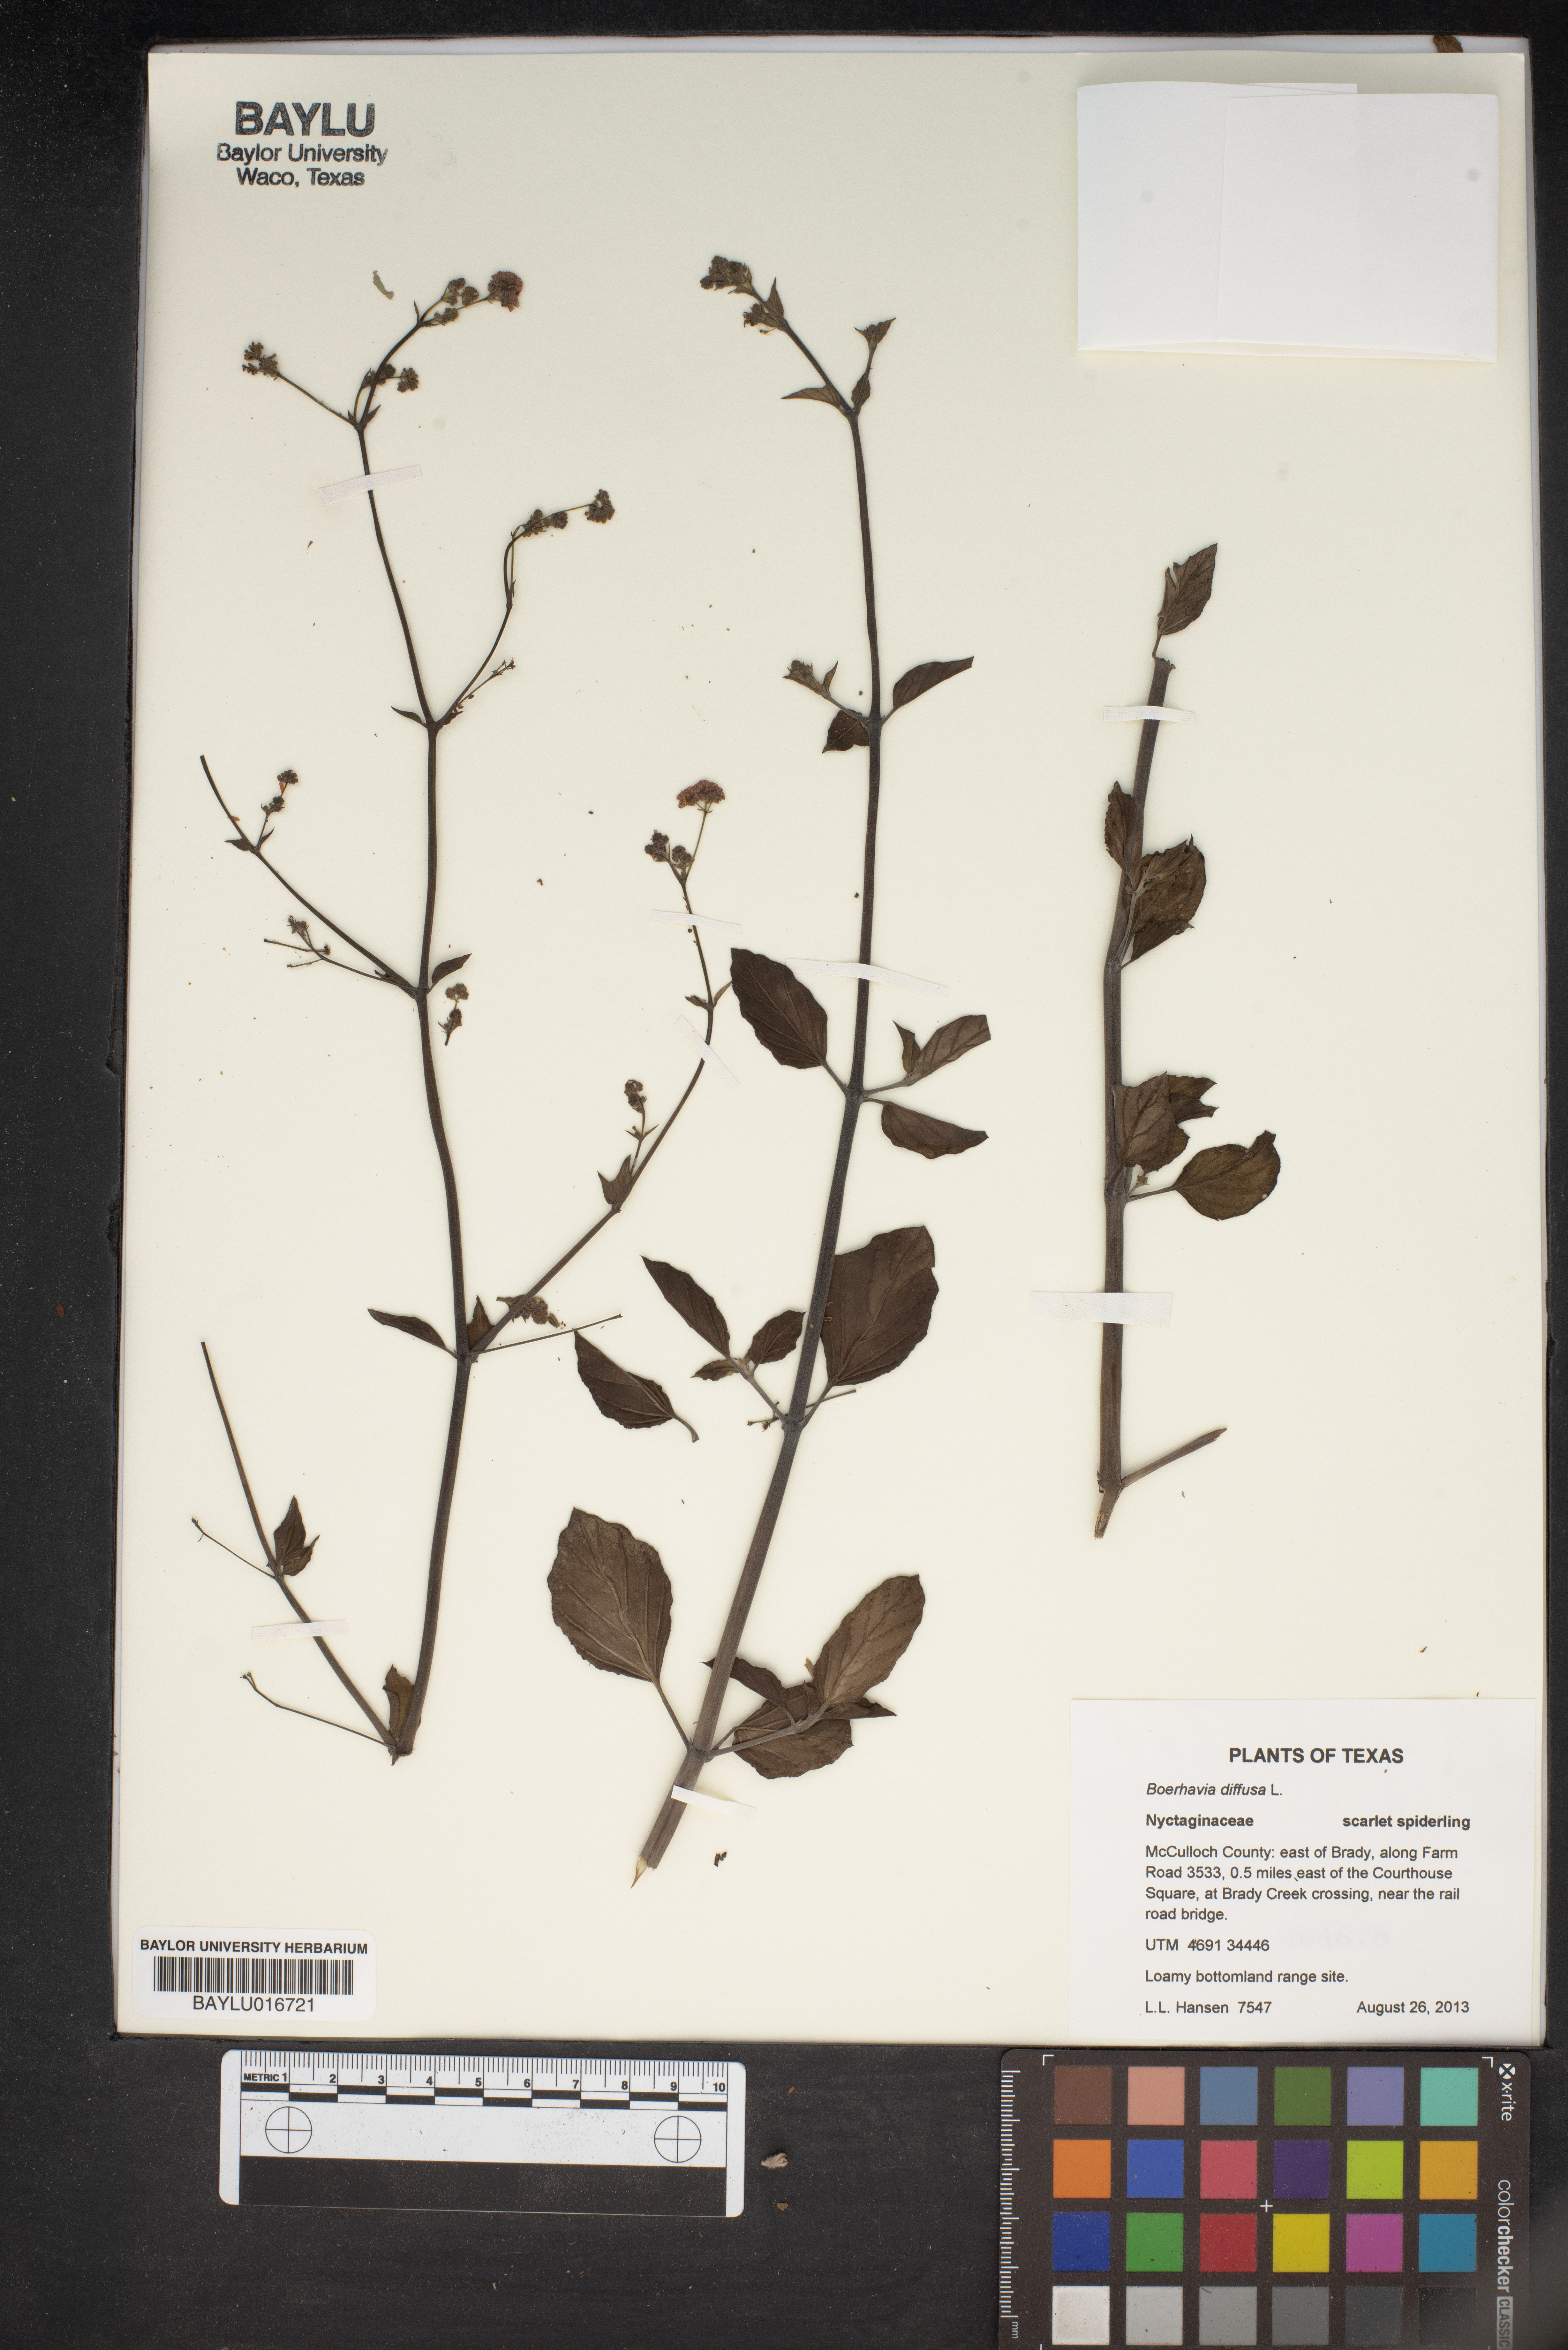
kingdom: Plantae
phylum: Tracheophyta
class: Magnoliopsida
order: Caryophyllales
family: Nyctaginaceae
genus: Boerhavia
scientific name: Boerhavia diffusa
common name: Red spiderling
